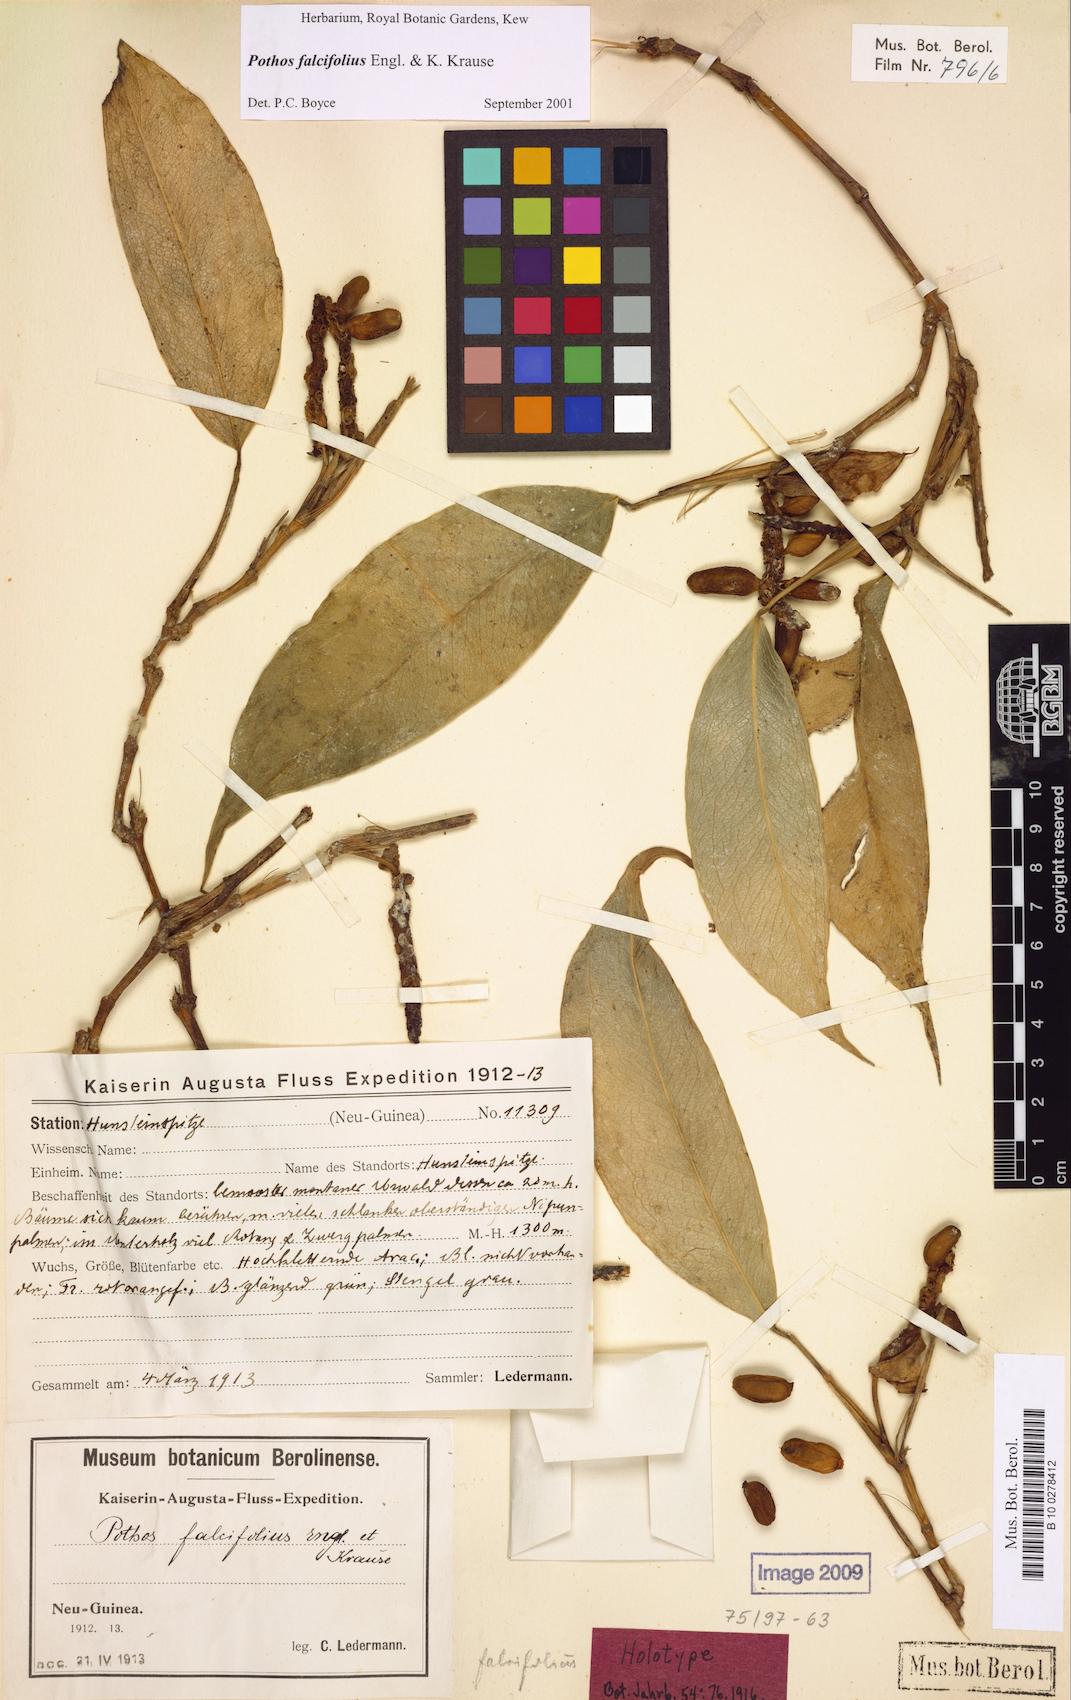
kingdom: Plantae
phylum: Tracheophyta
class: Liliopsida
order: Alismatales
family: Araceae
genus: Pothos
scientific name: Pothos falcifolius
